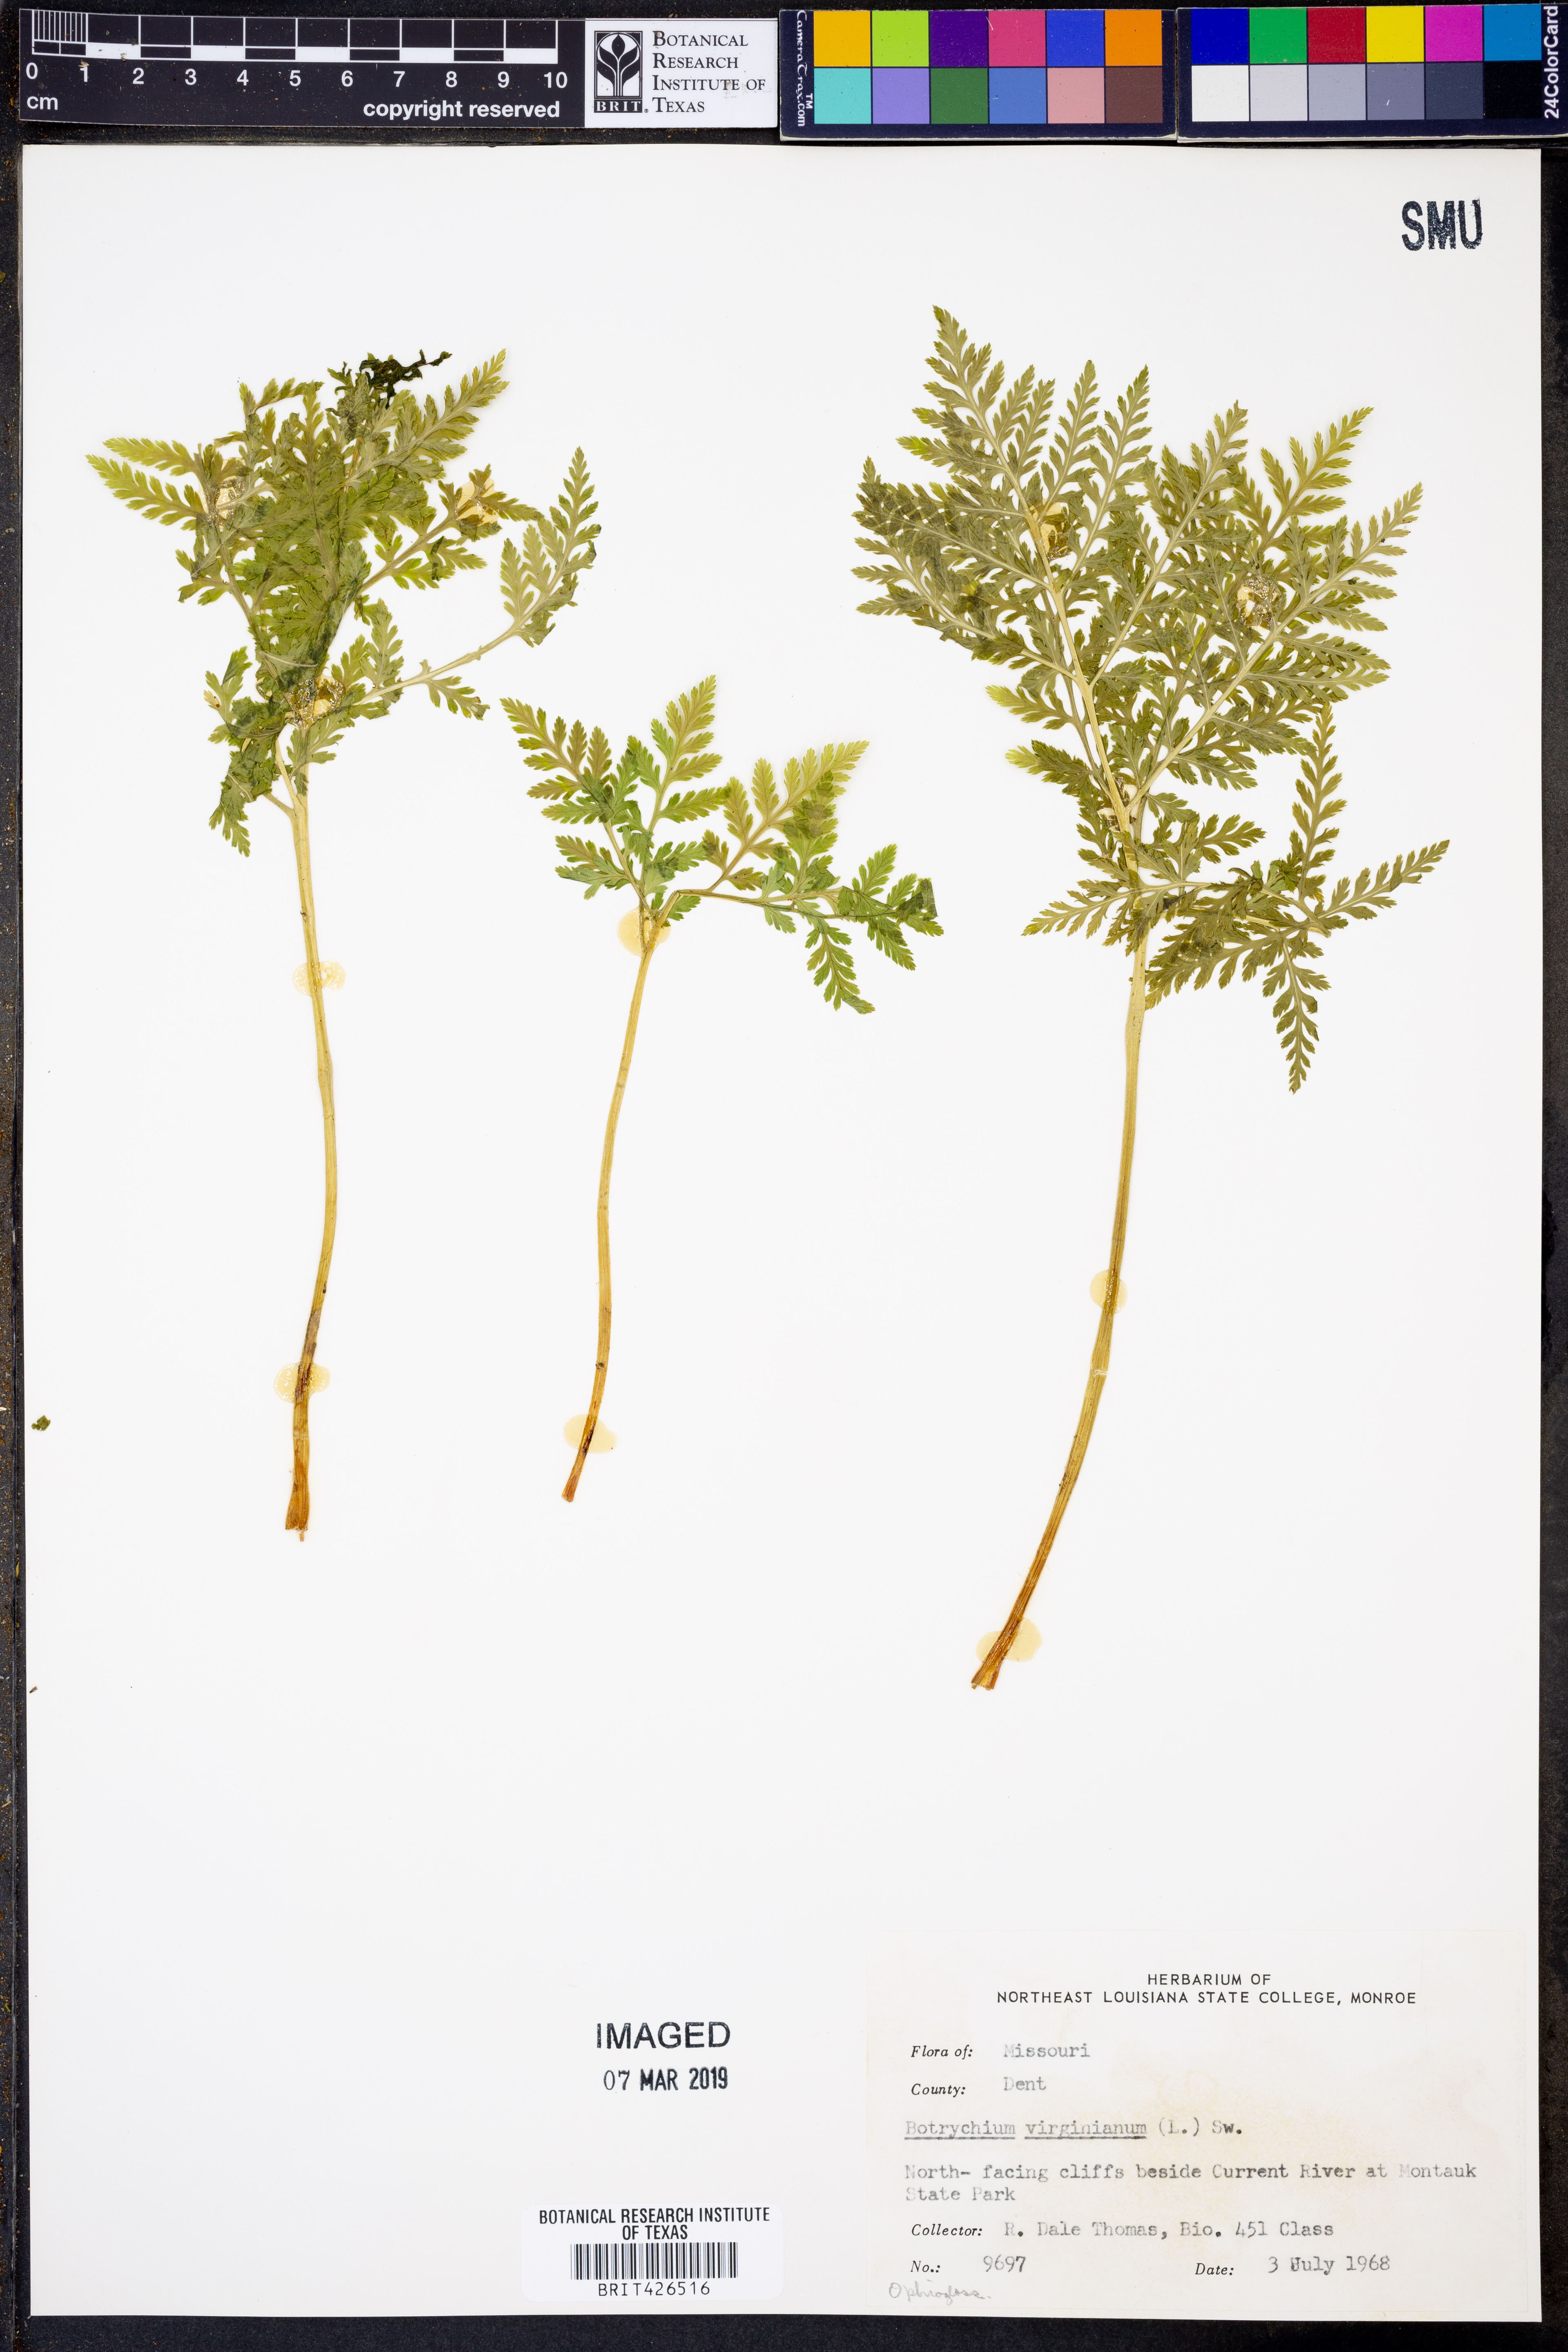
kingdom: Plantae
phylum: Tracheophyta
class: Polypodiopsida
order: Ophioglossales
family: Ophioglossaceae
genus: Botrypus
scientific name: Botrypus virginianus
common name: Common grapefern
